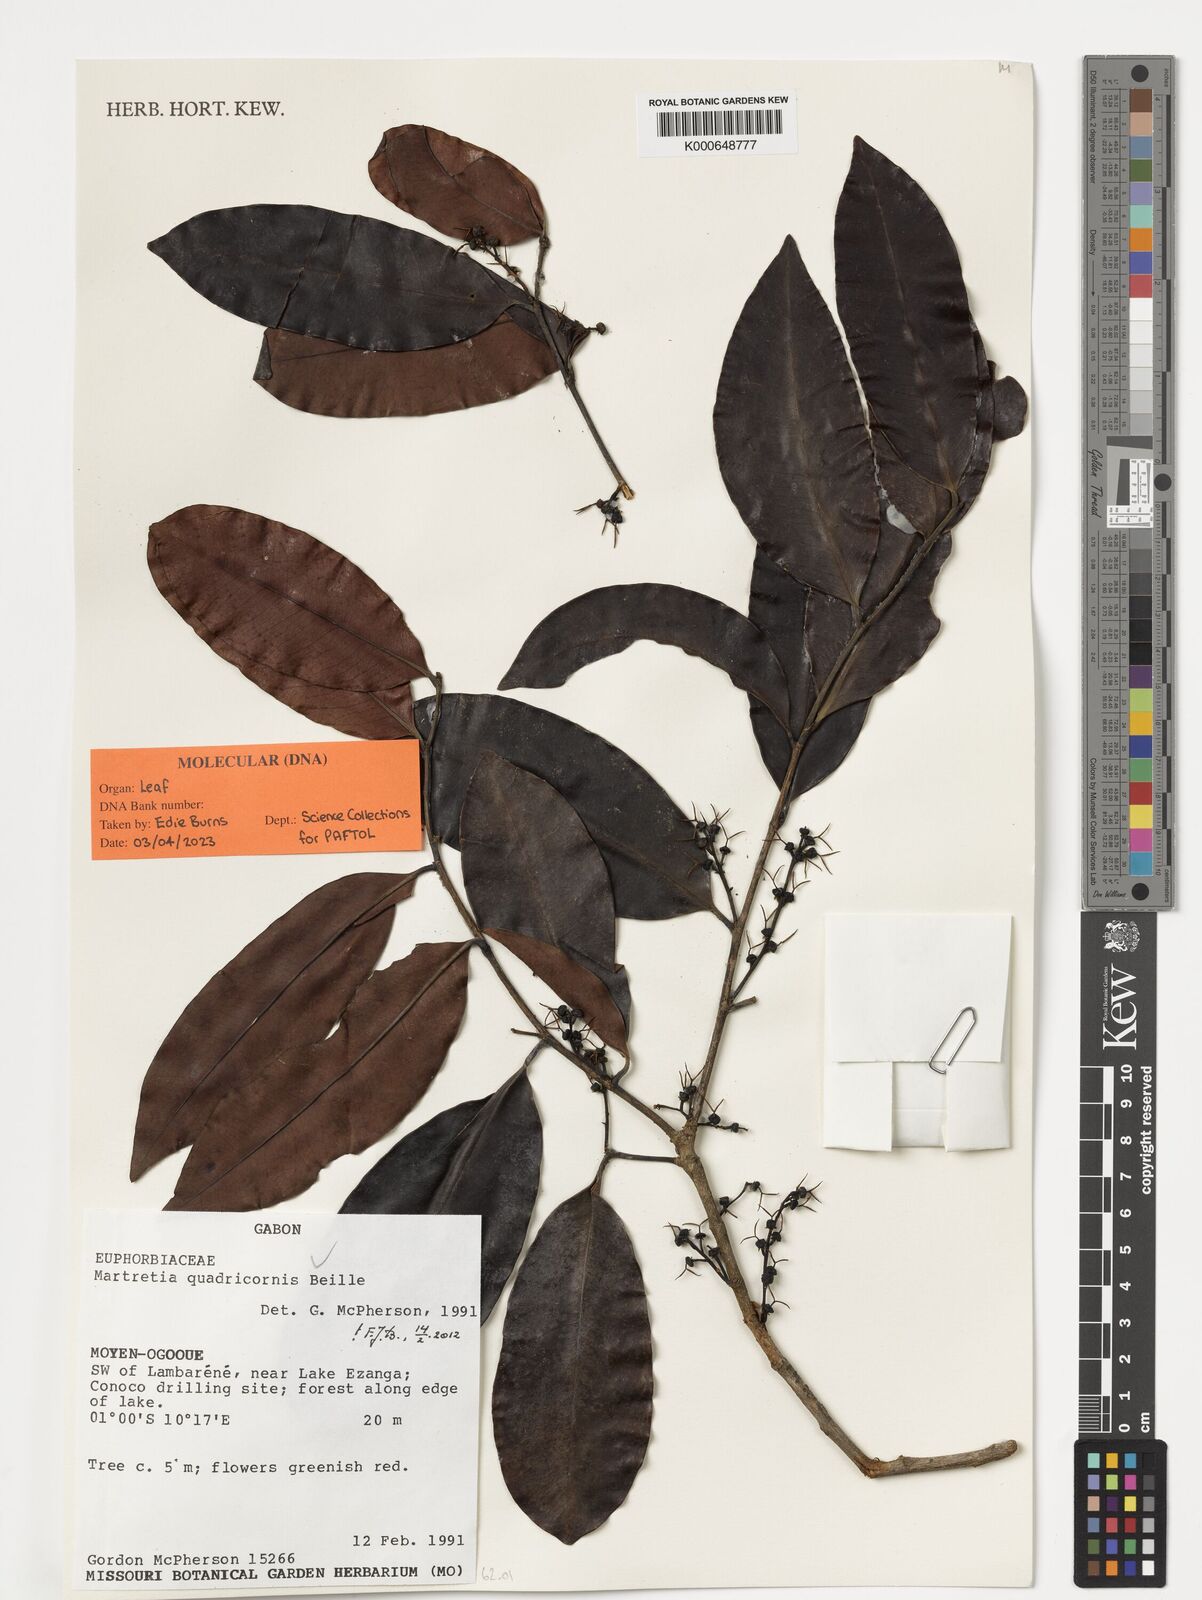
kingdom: Plantae
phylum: Tracheophyta
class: Magnoliopsida
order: Malpighiales
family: Phyllanthaceae
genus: Martretia
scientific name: Martretia quadricornis
